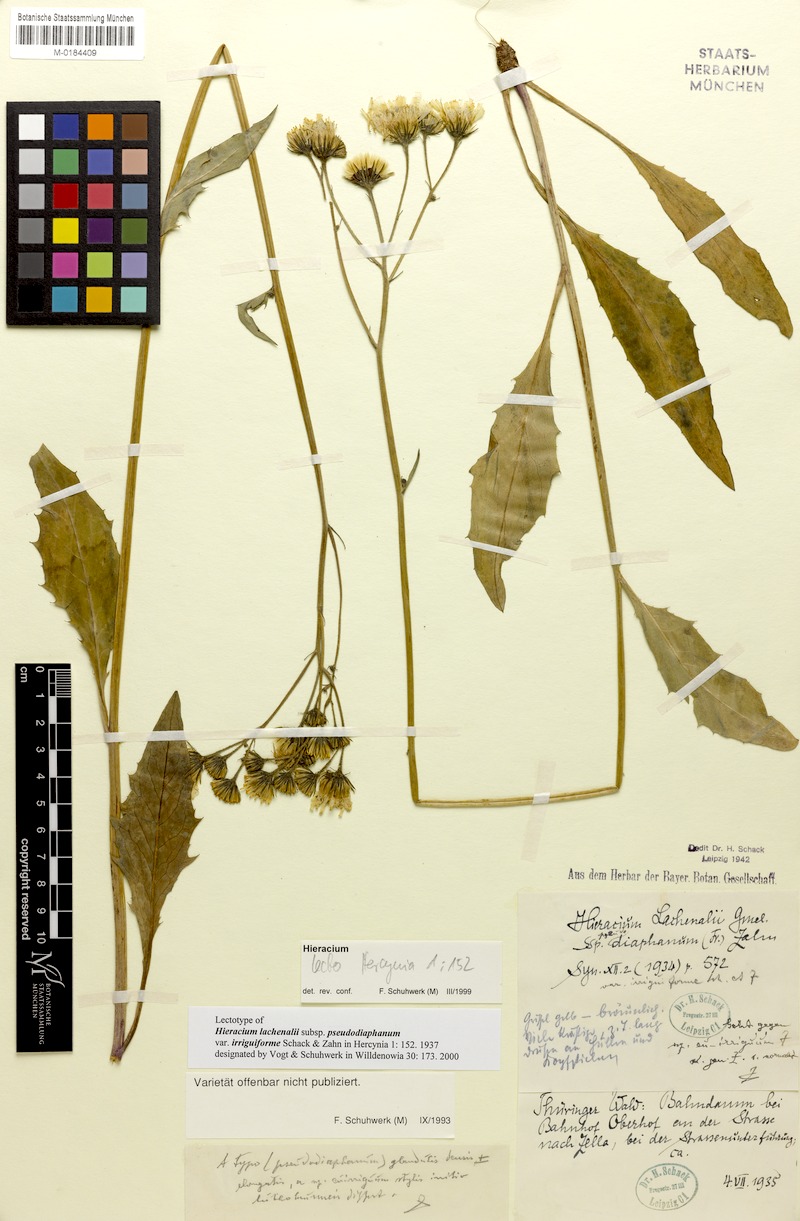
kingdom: Plantae
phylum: Tracheophyta
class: Magnoliopsida
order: Asterales
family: Asteraceae
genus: Hieracium
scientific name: Hieracium lachenalii
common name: Common hawkweed
